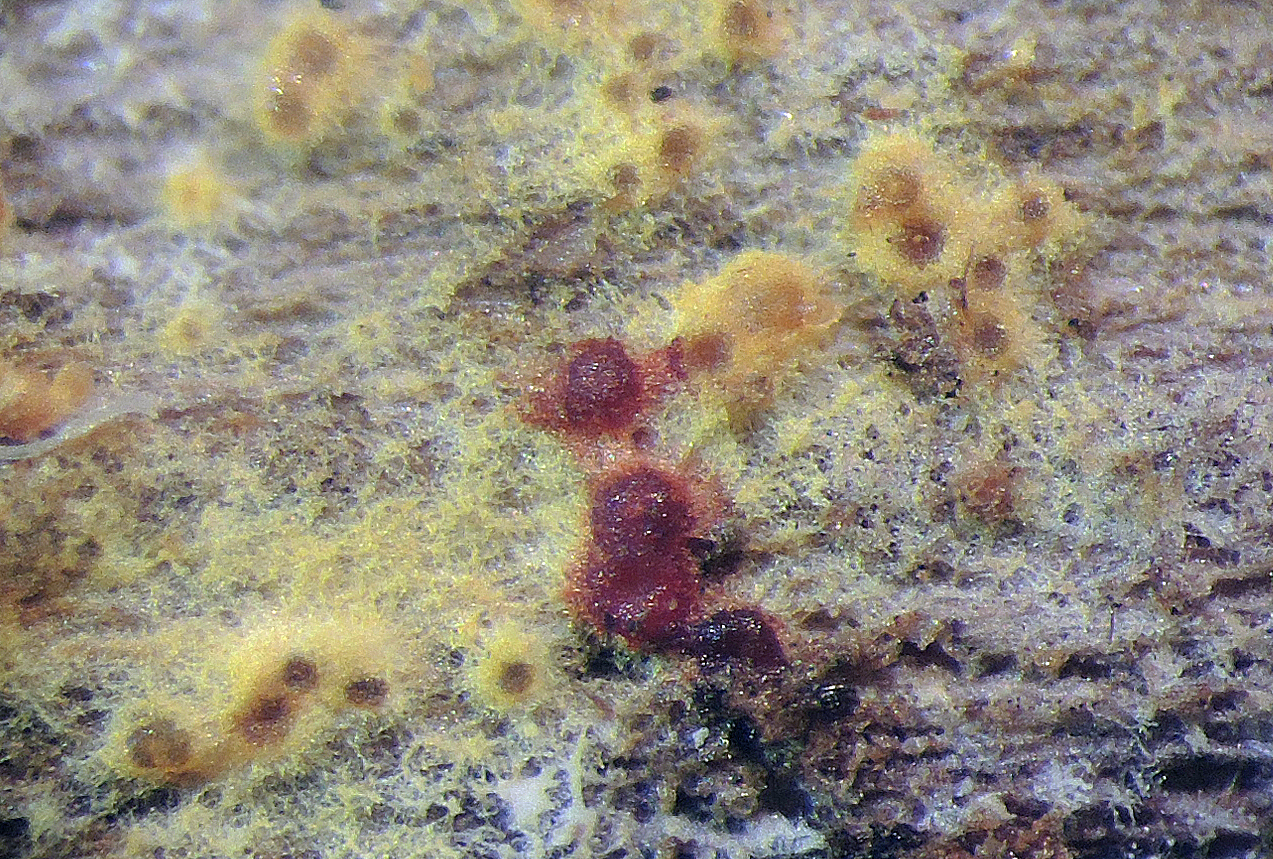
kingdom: Fungi
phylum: Ascomycota
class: Sordariomycetes
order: Hypocreales
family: Nectriaceae
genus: Chrysonectria
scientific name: Chrysonectria finisterrensis
